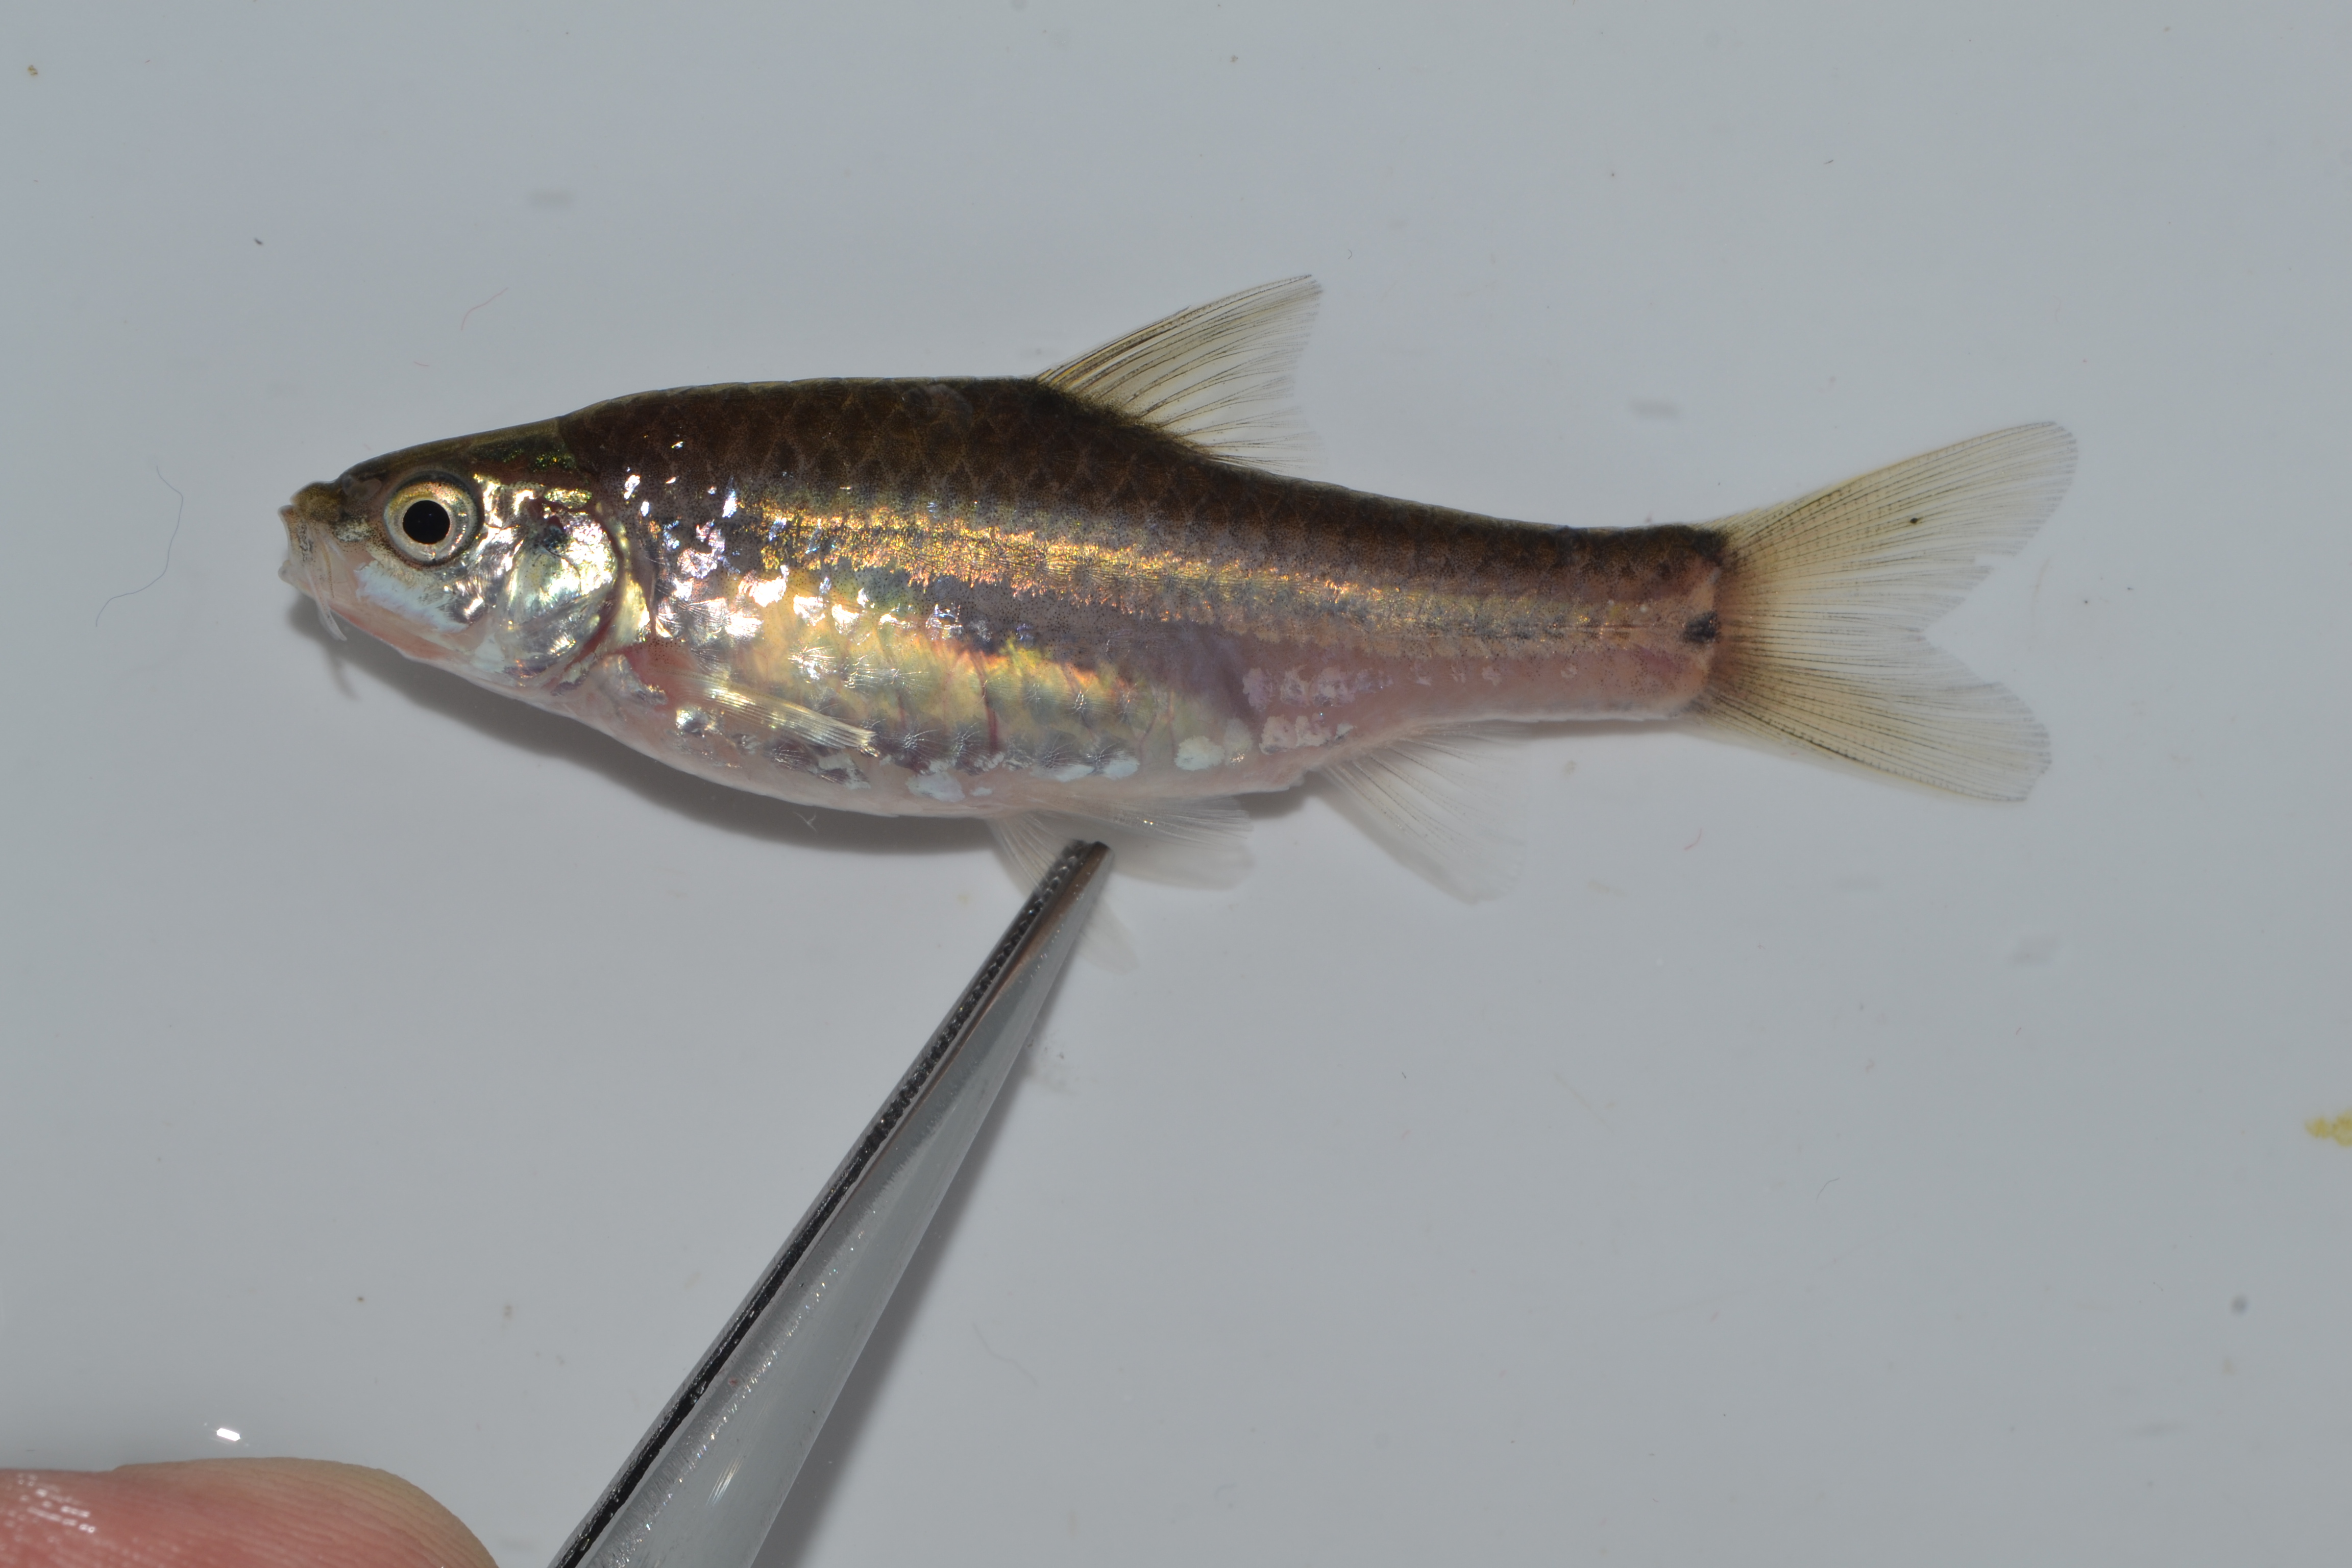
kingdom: Animalia
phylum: Chordata
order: Cypriniformes
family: Cyprinidae
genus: Enteromius
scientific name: Enteromius viviparus
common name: Bowstripe barb
